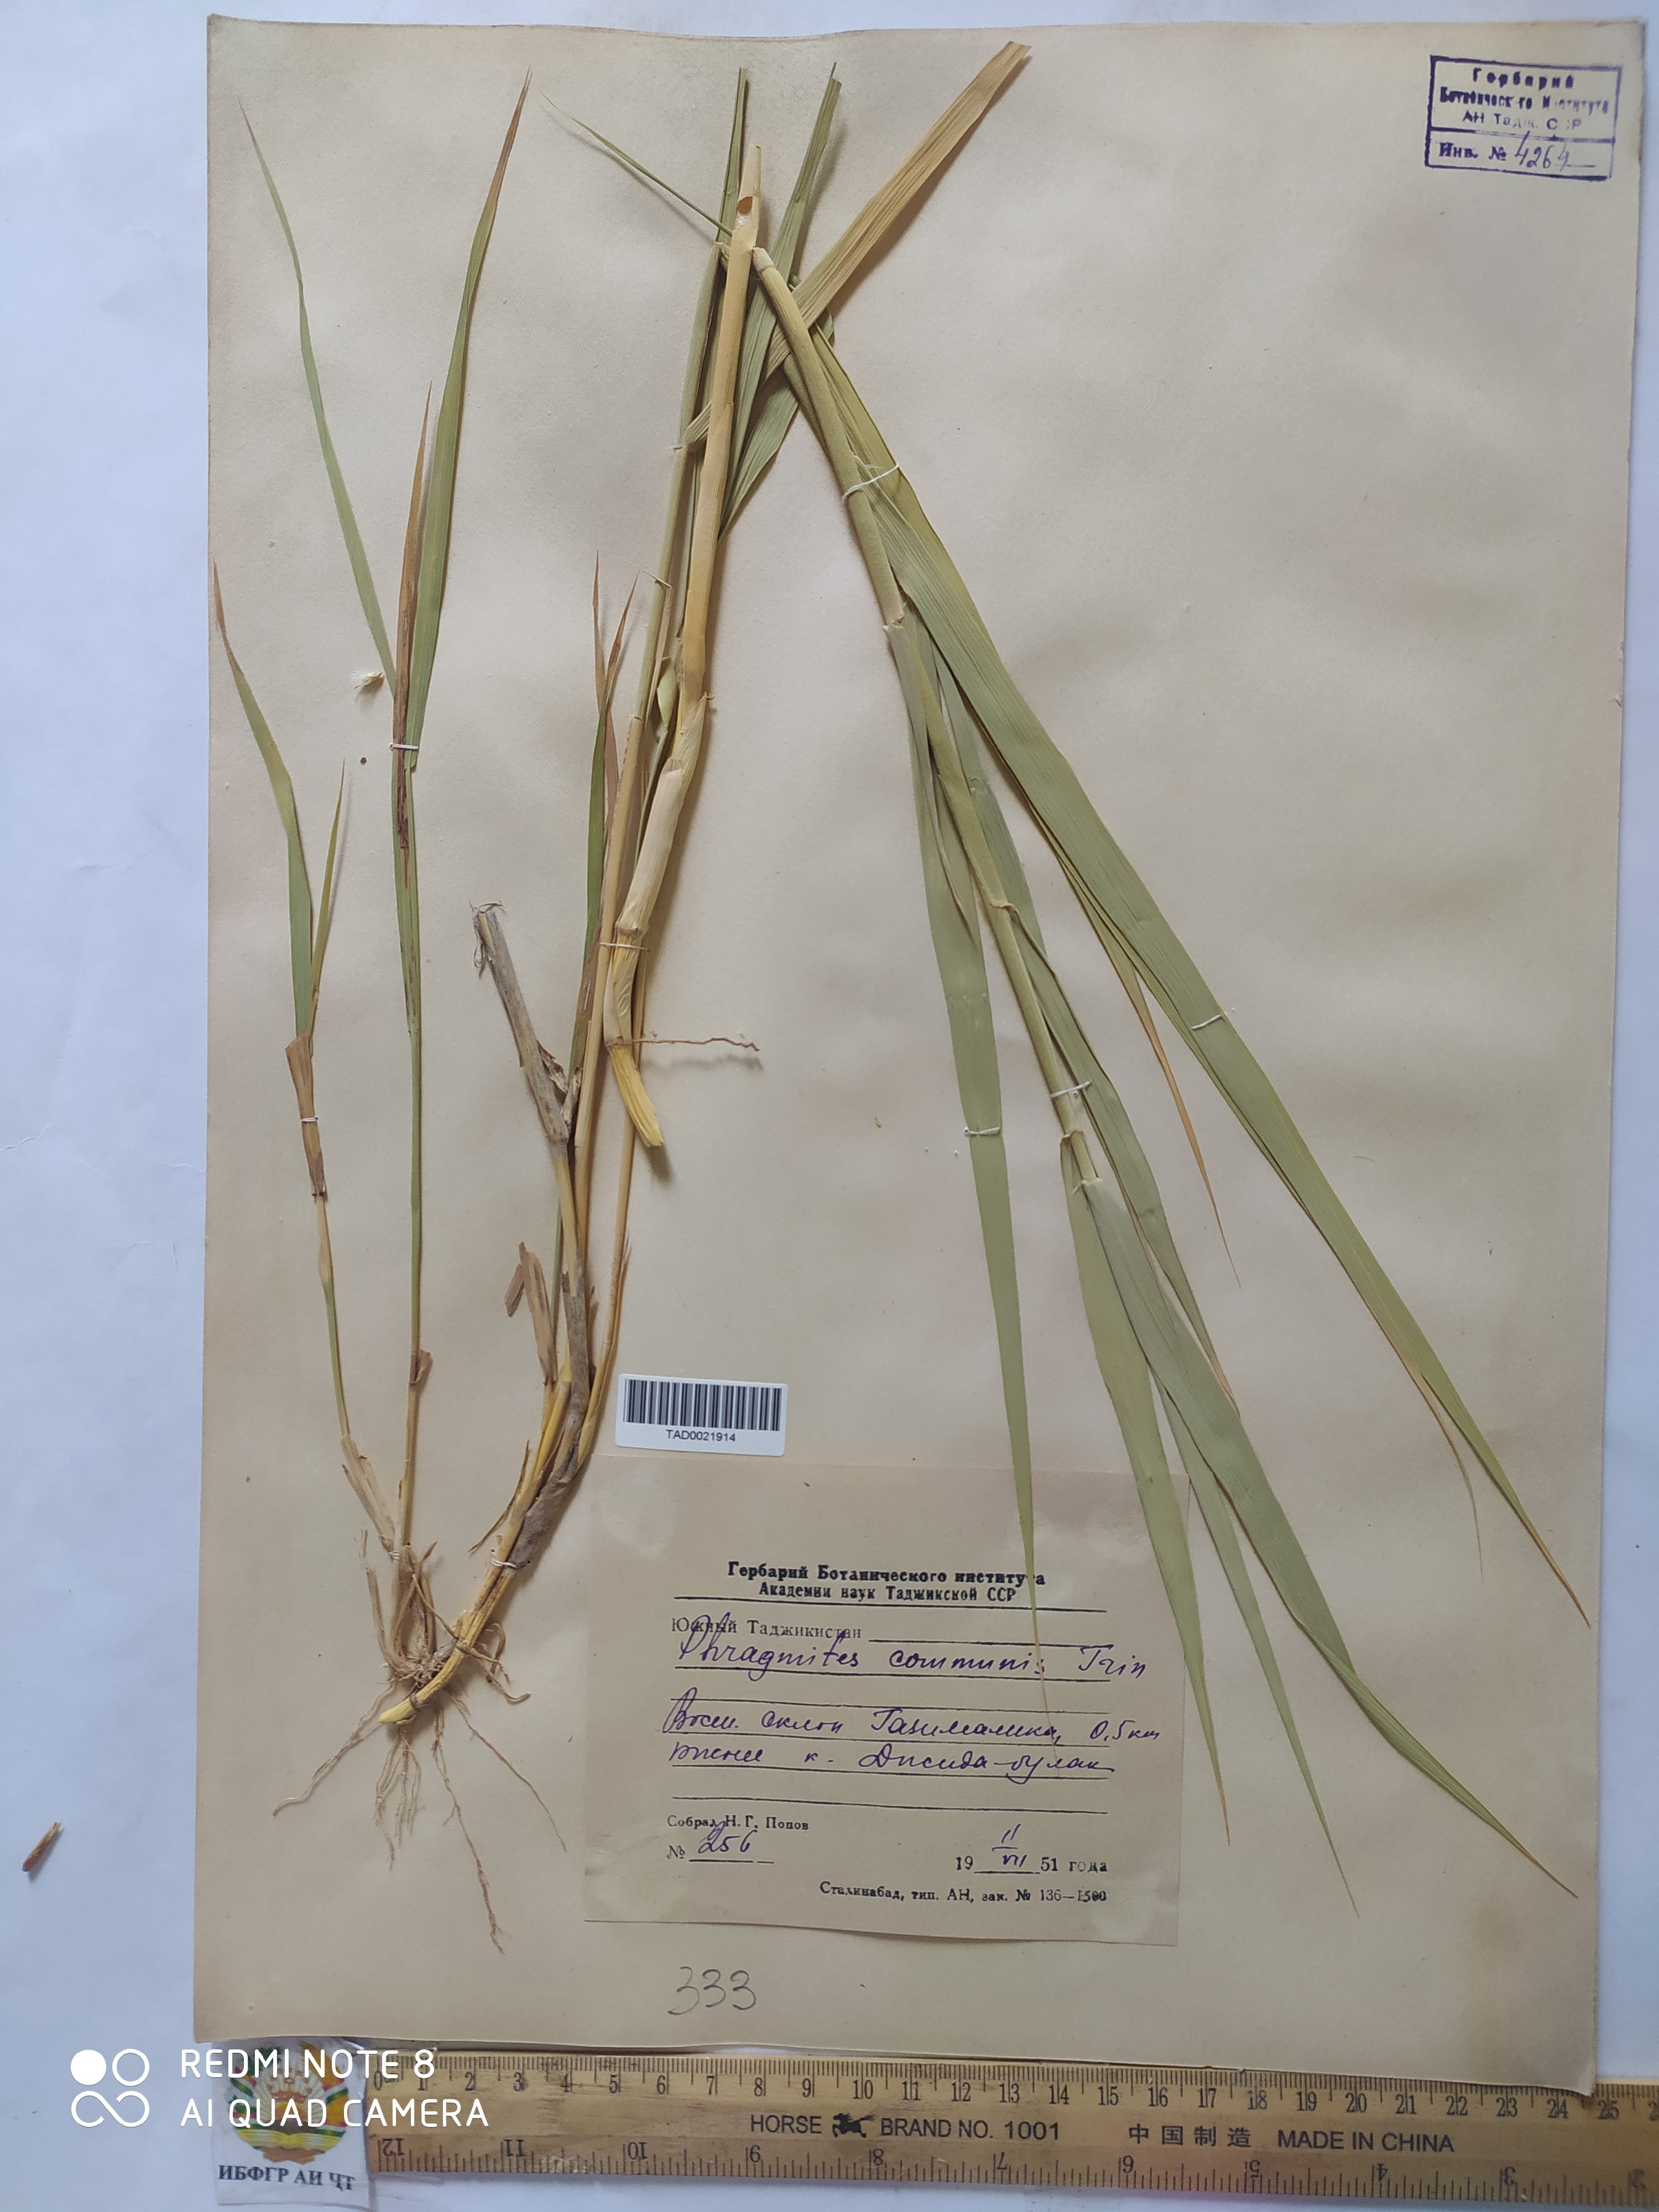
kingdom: Plantae
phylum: Tracheophyta
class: Liliopsida
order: Poales
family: Poaceae
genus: Phragmites
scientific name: Phragmites australis
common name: Common reed
